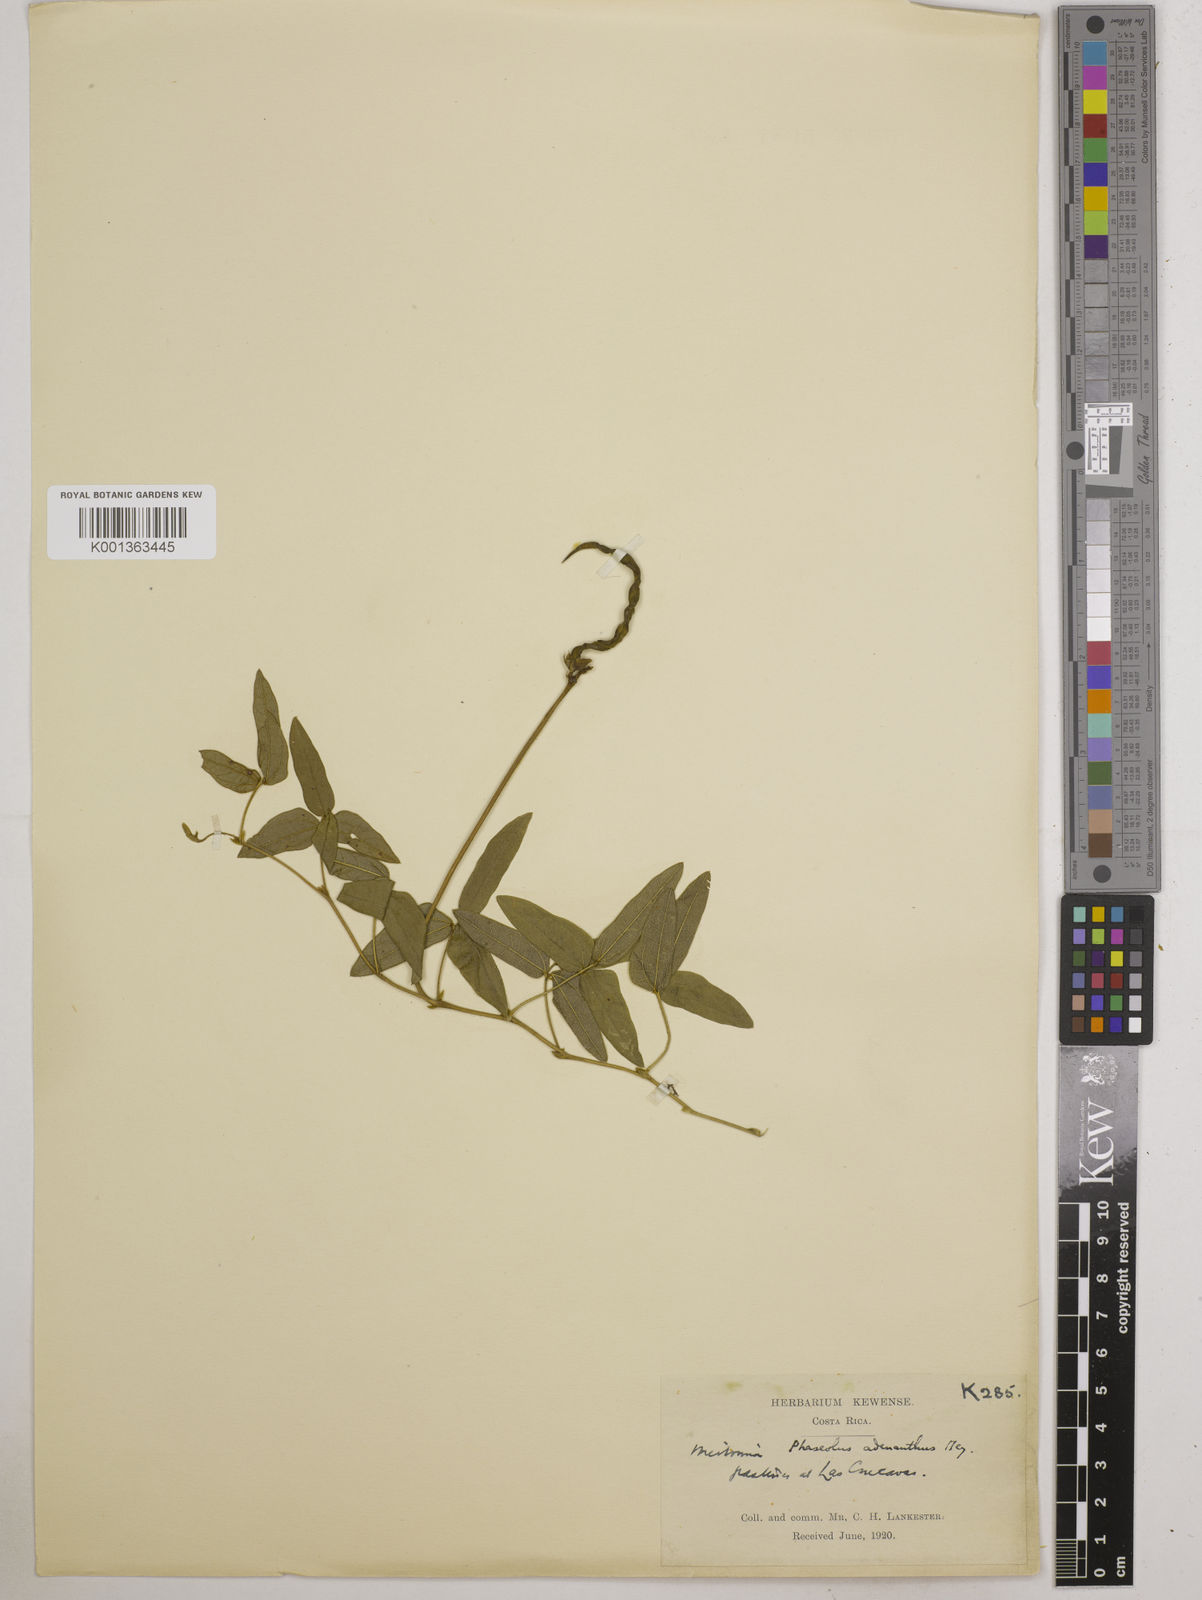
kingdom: Plantae
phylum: Tracheophyta
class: Magnoliopsida
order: Fabales
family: Fabaceae
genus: Vigna
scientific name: Vigna
